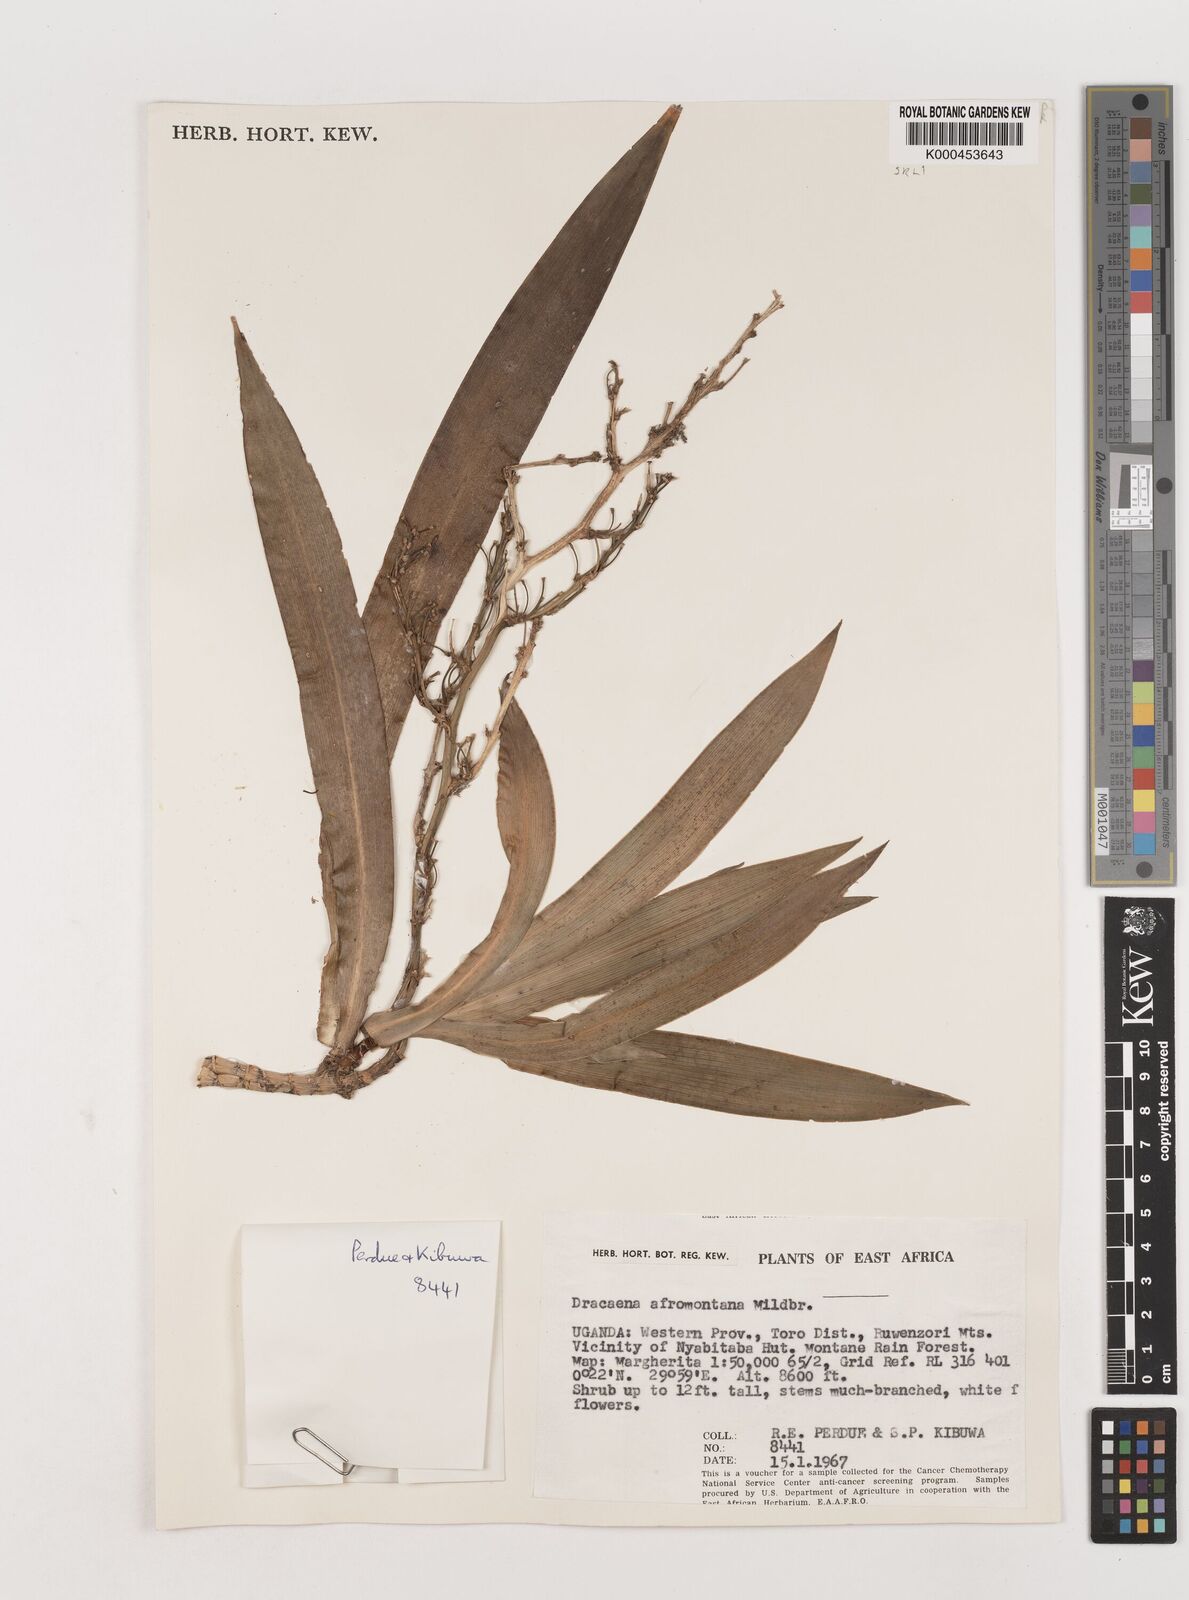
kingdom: Plantae
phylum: Tracheophyta
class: Liliopsida
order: Asparagales
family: Asparagaceae
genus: Dracaena
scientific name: Dracaena afromontana
